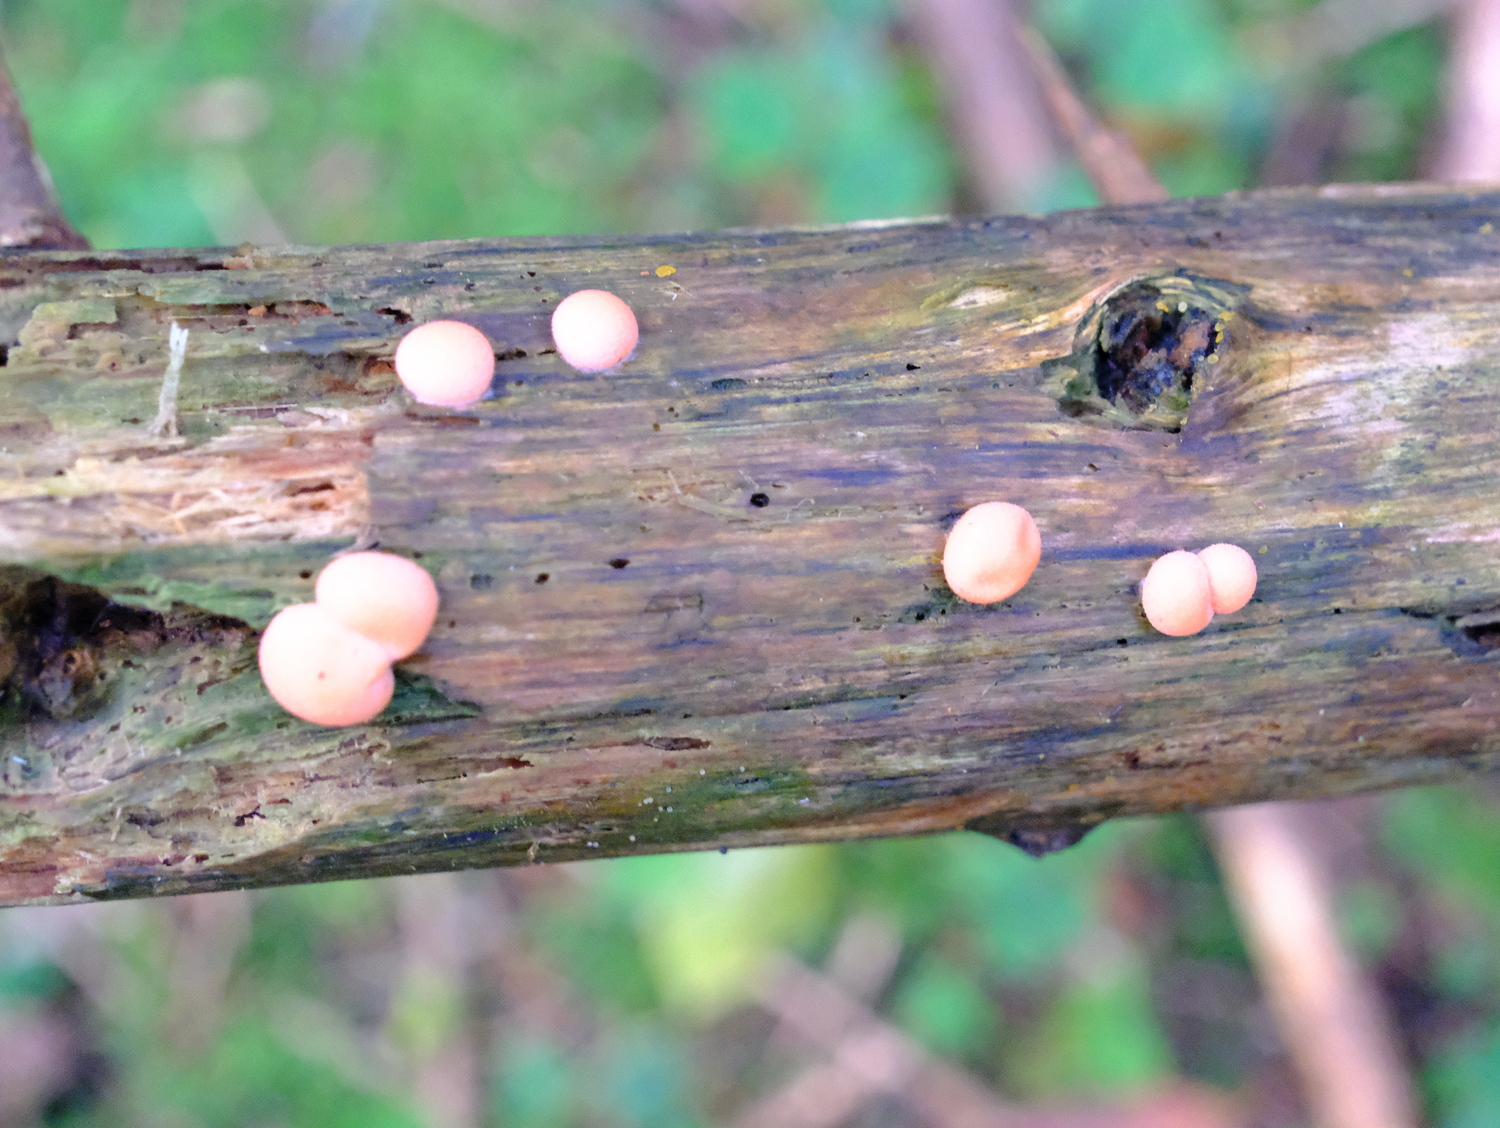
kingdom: Protozoa
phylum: Mycetozoa
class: Myxomycetes
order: Cribrariales
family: Tubiferaceae
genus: Lycogala
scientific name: Lycogala epidendrum
